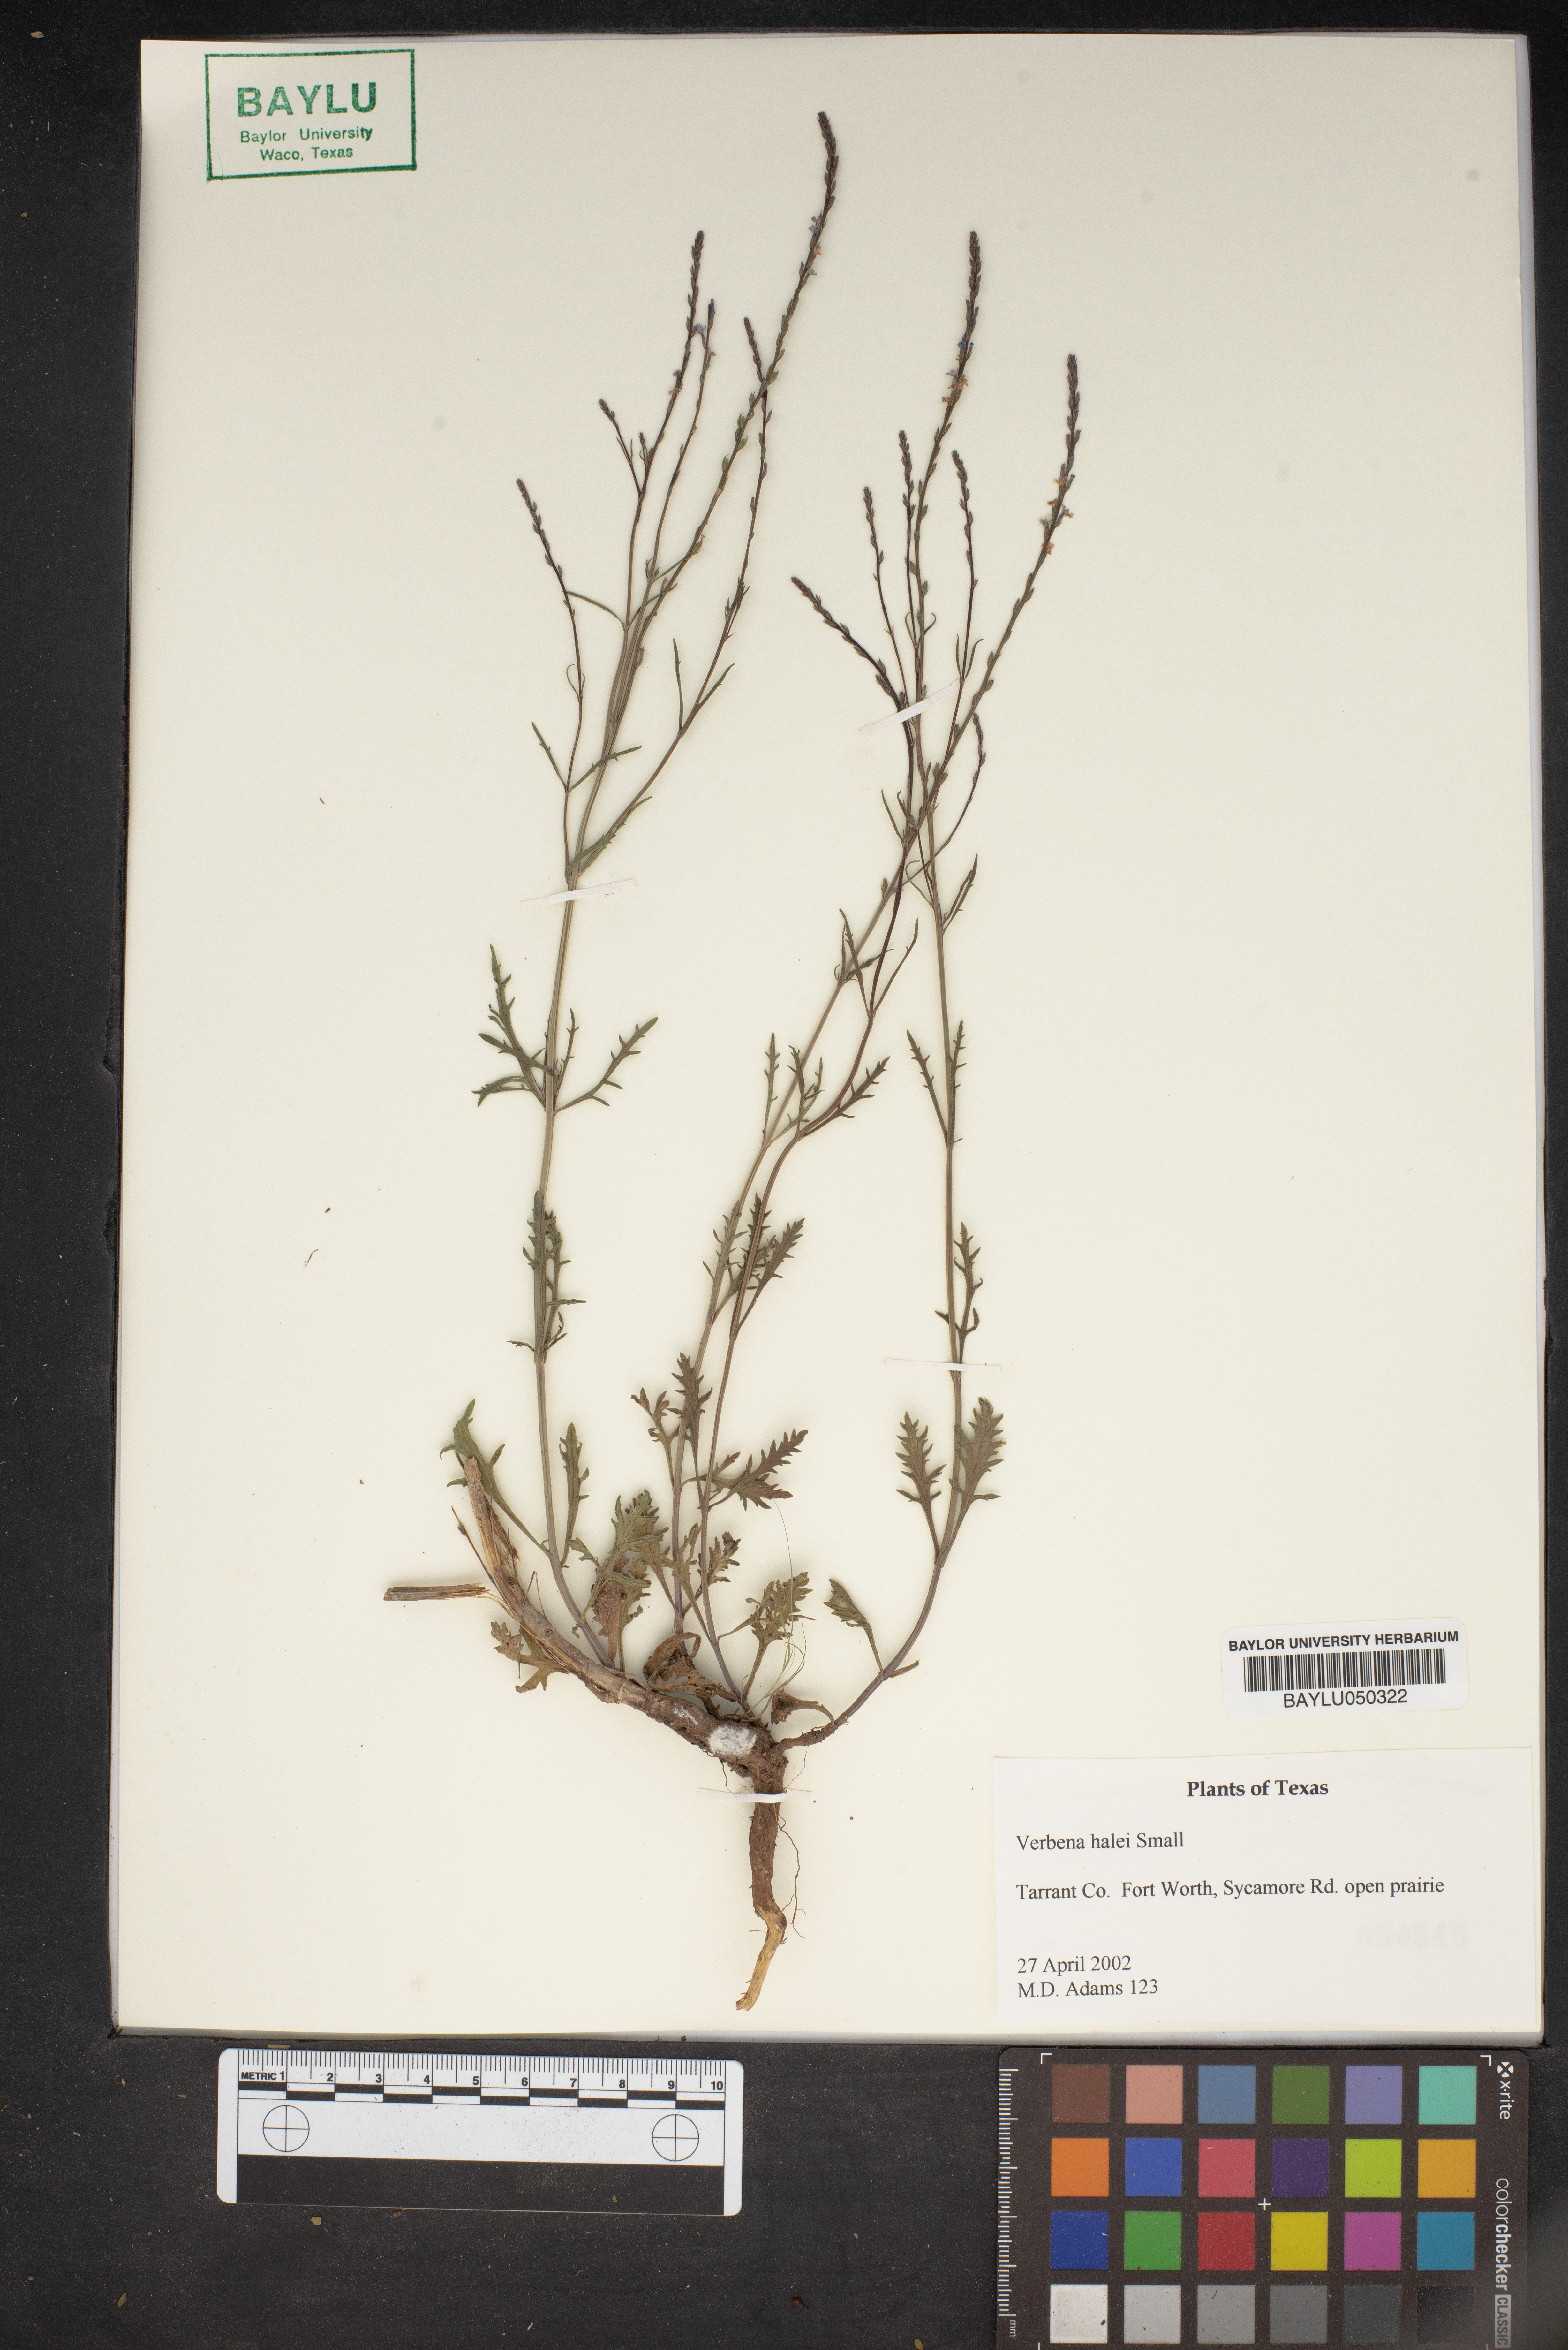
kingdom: Plantae
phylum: Tracheophyta
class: Magnoliopsida
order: Lamiales
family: Verbenaceae
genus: Verbena
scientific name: Verbena halei
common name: Texas vervain
